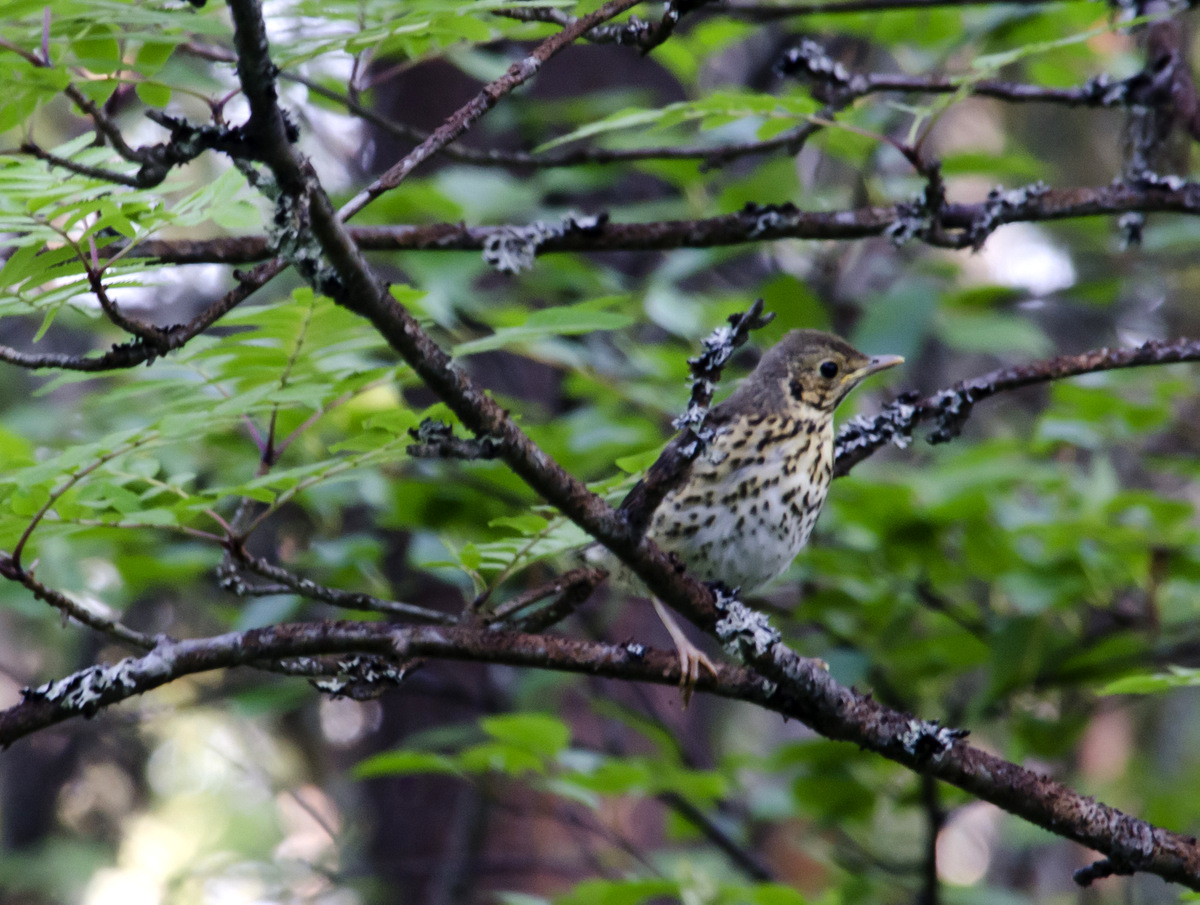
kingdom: Animalia
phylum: Chordata
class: Aves
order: Passeriformes
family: Turdidae
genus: Turdus
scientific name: Turdus philomelos
